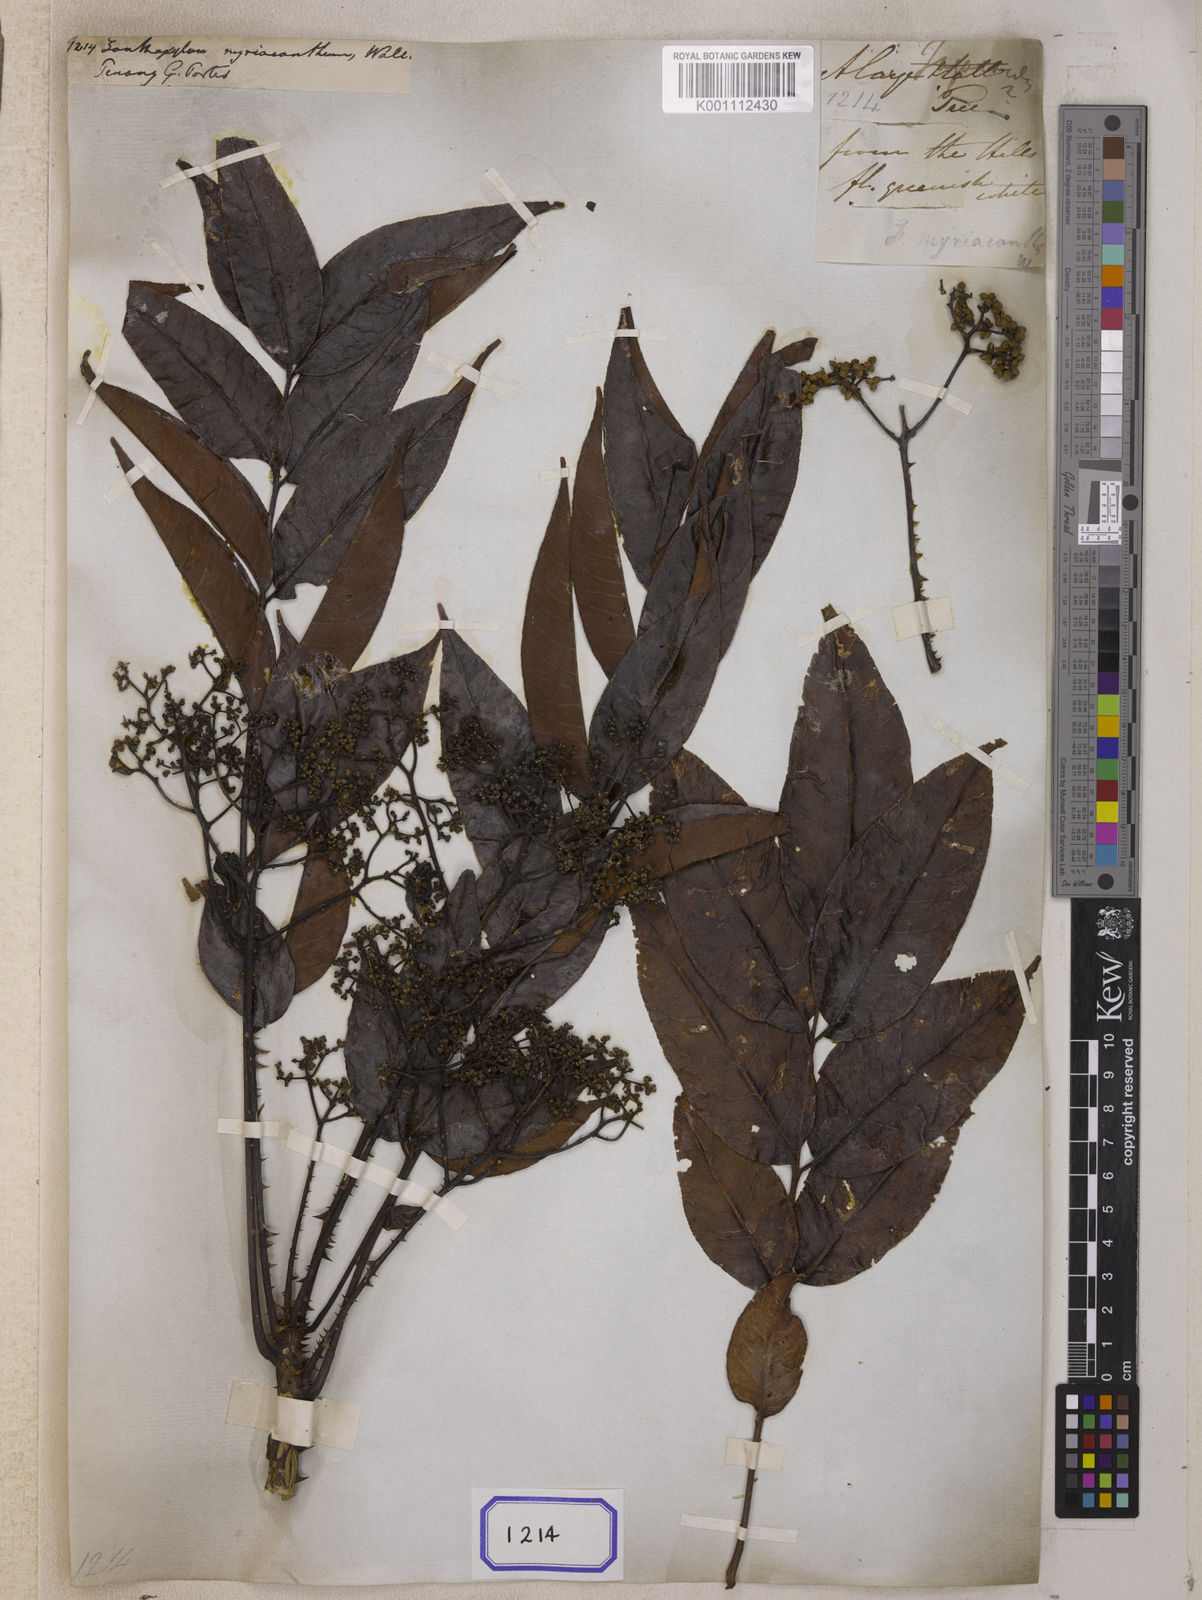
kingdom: Plantae
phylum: Tracheophyta
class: Magnoliopsida
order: Sapindales
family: Rutaceae
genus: Zanthoxylum
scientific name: Zanthoxylum
